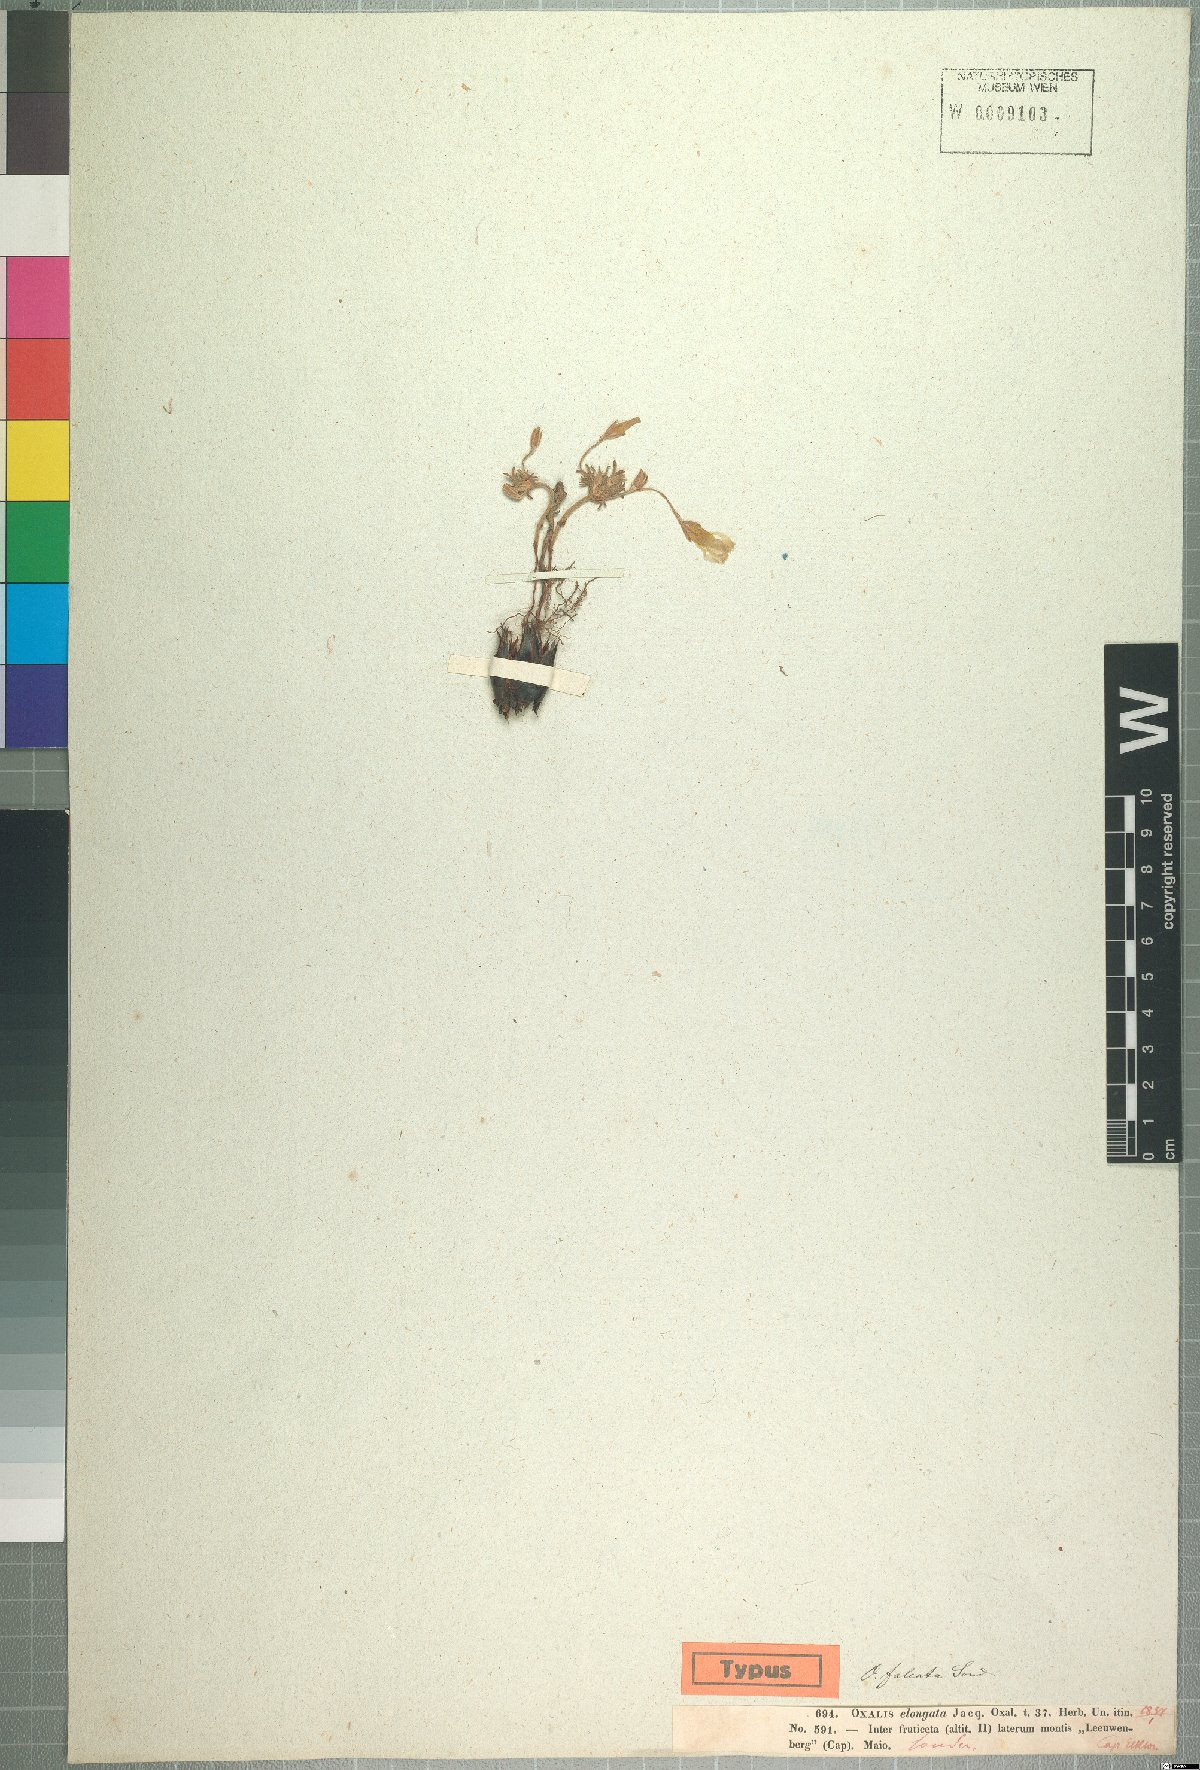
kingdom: Plantae
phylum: Tracheophyta
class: Magnoliopsida
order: Oxalidales
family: Oxalidaceae
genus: Oxalis
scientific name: Oxalis falcatula
